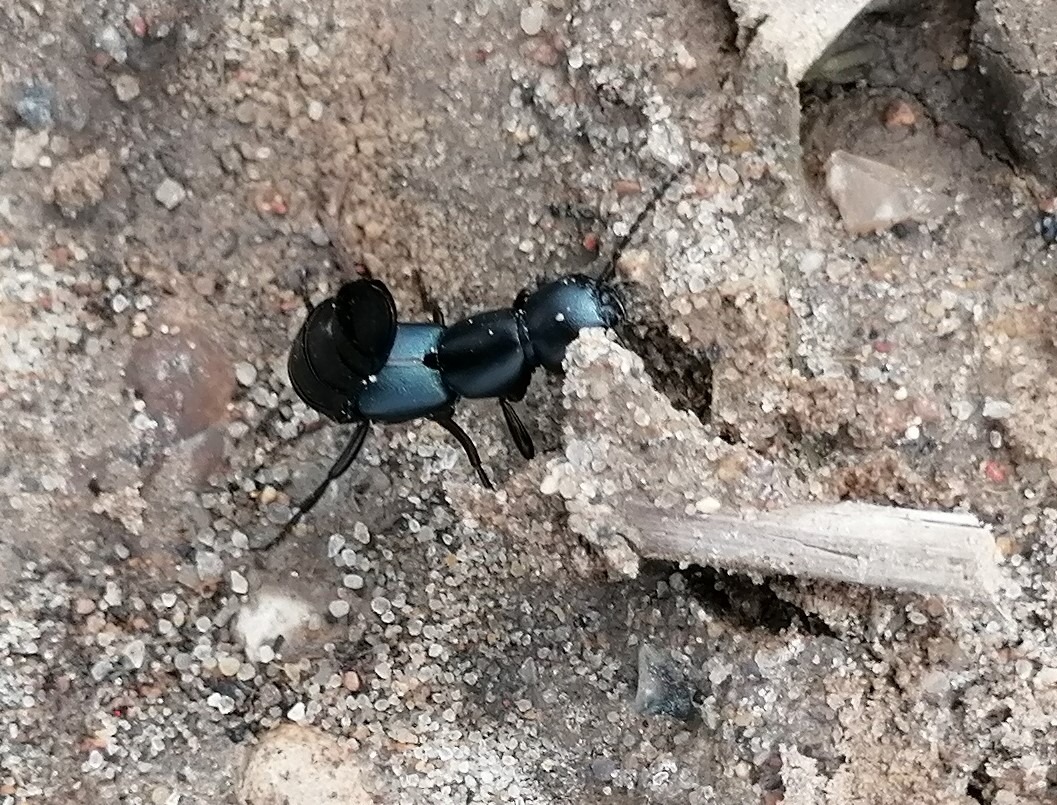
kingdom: Animalia
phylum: Arthropoda
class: Insecta
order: Coleoptera
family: Staphylinidae
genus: Ocypus
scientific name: Ocypus ophthalmicus
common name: Blå kæmperovbille
